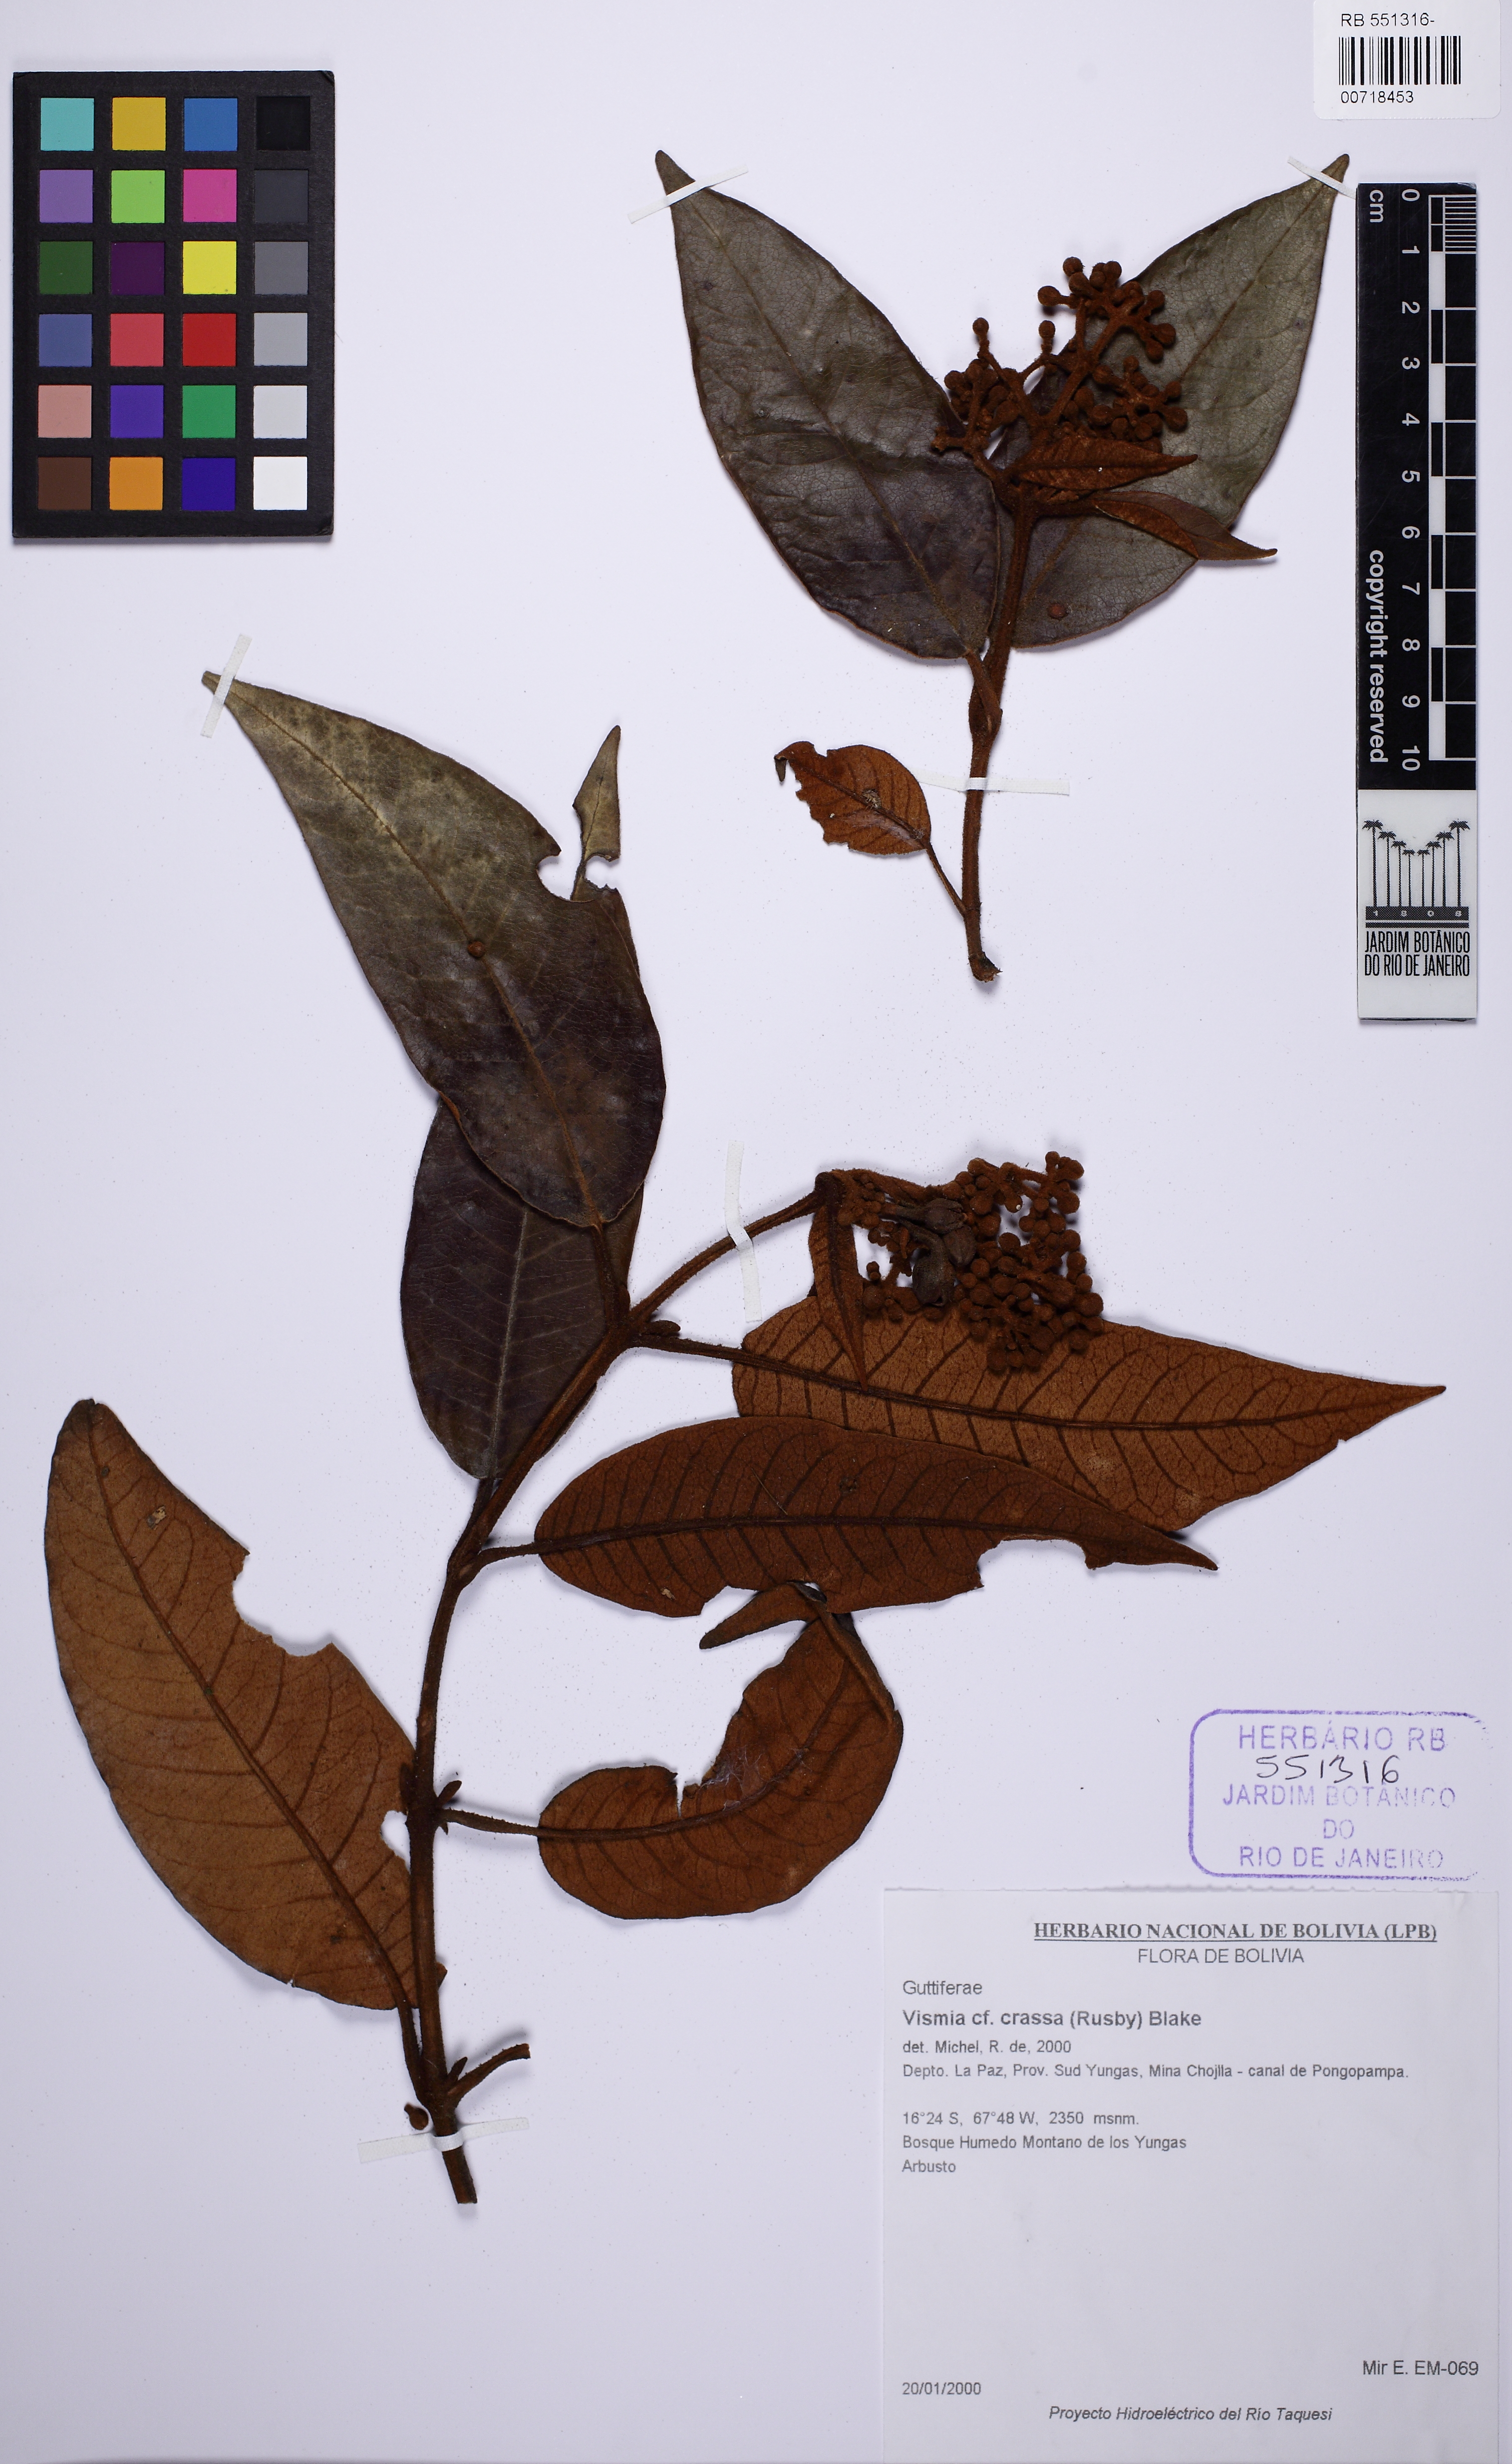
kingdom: Plantae
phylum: Tracheophyta
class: Magnoliopsida
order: Malpighiales
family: Hypericaceae
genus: Vismia
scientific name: Vismia crassa
